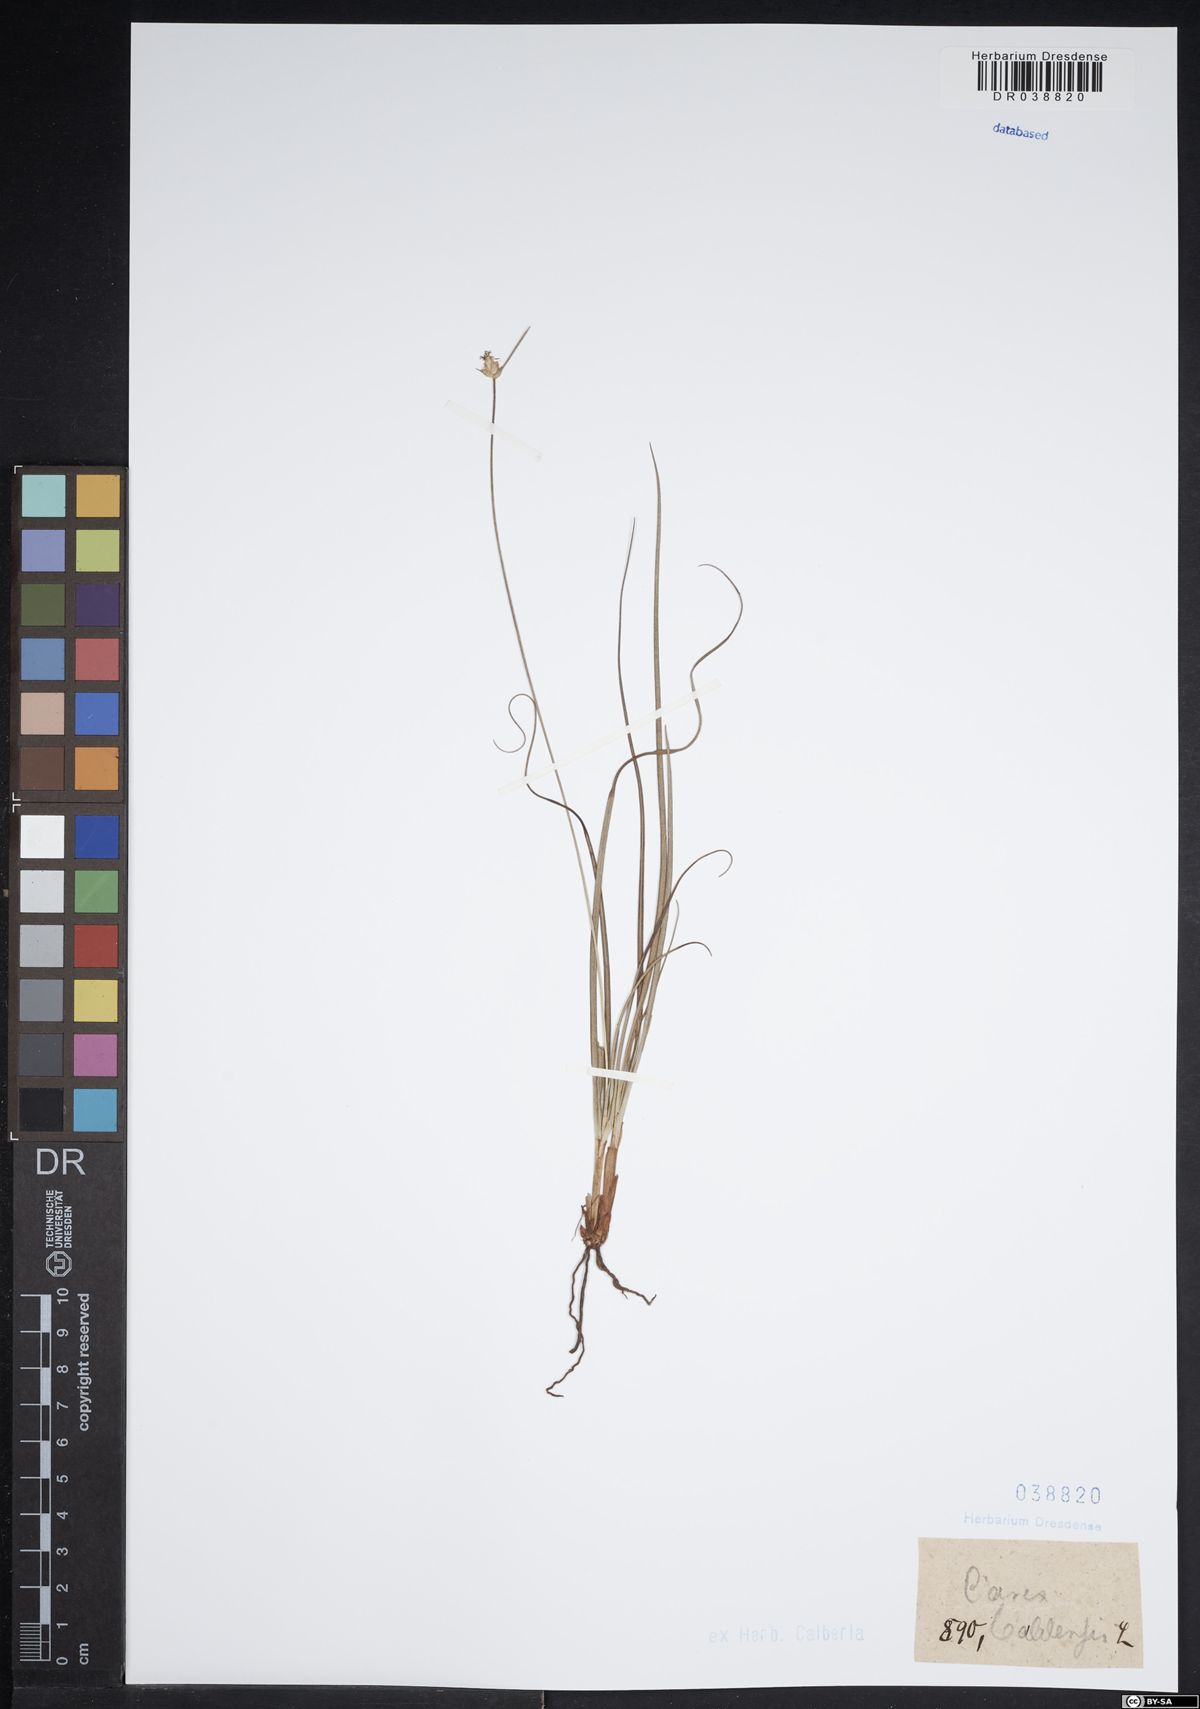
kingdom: Plantae
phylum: Tracheophyta
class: Liliopsida
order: Poales
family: Cyperaceae
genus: Carex
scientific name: Carex baldensis
